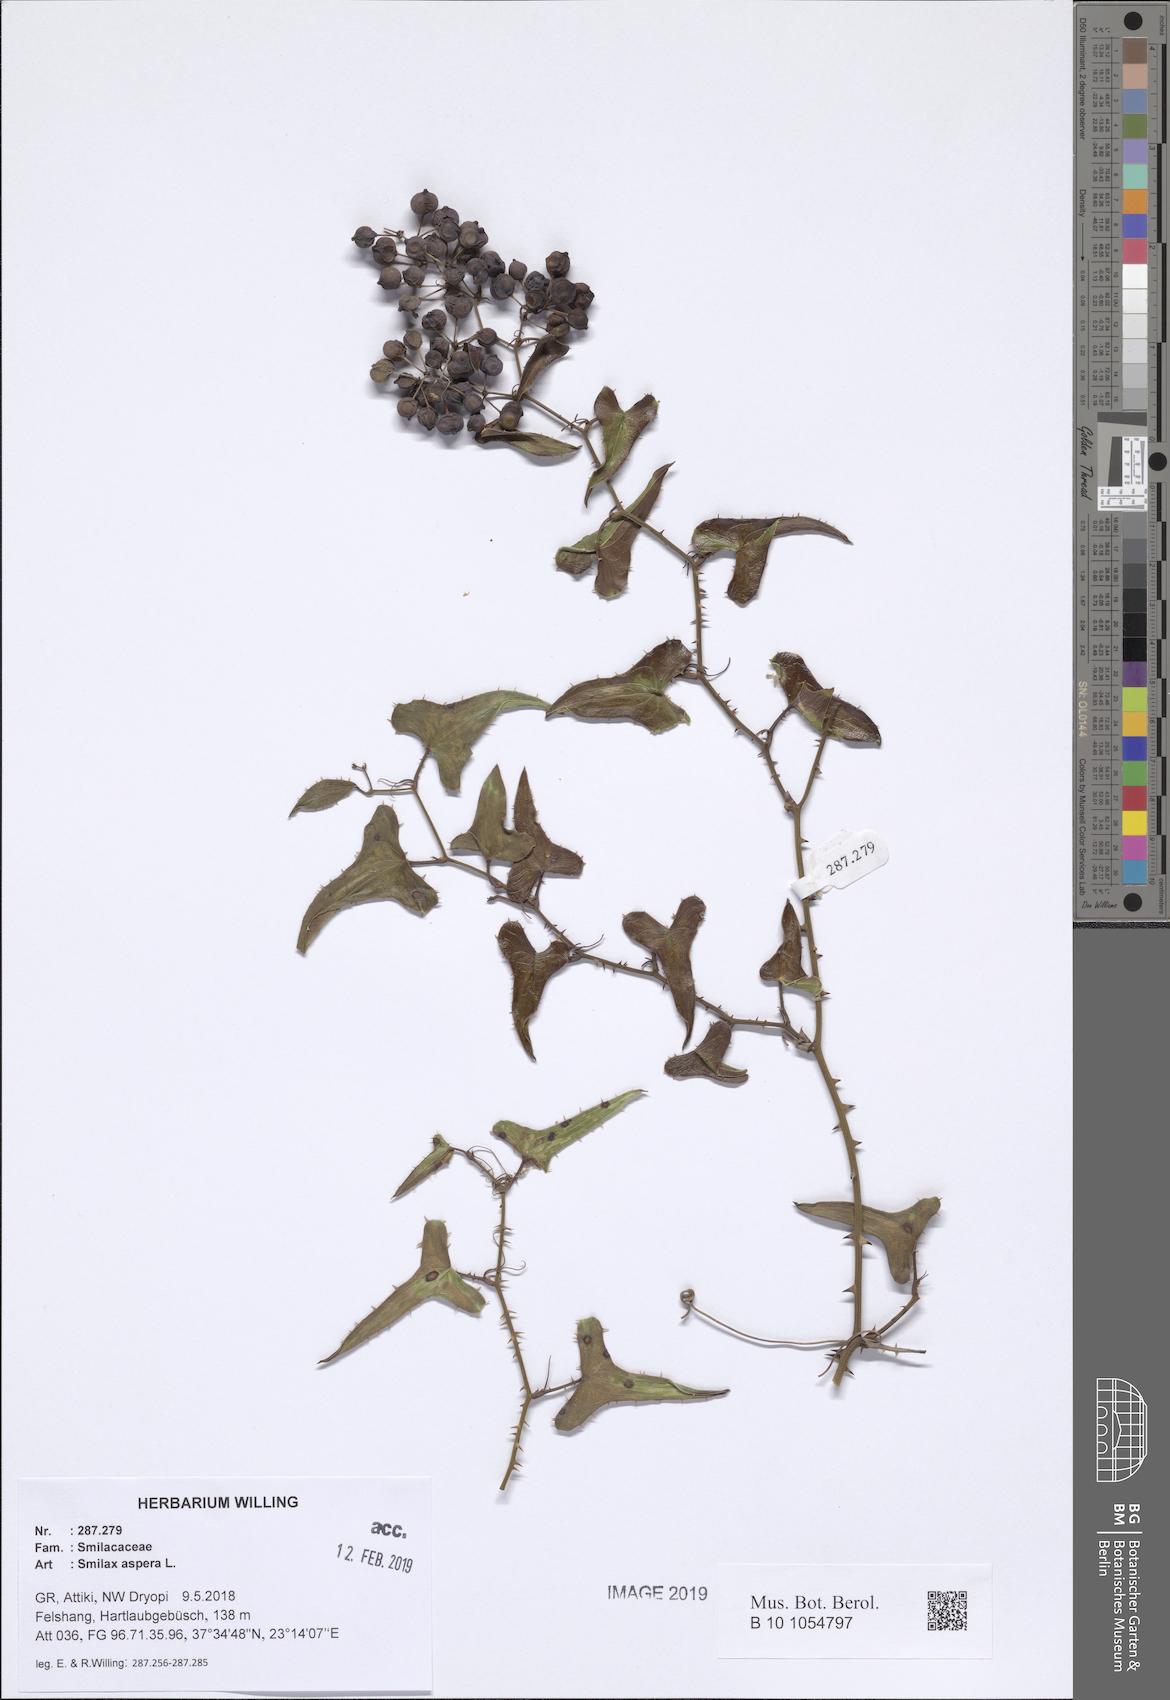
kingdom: Plantae
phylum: Tracheophyta
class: Liliopsida
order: Liliales
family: Smilacaceae
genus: Smilax
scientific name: Smilax aspera
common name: Common smilax
